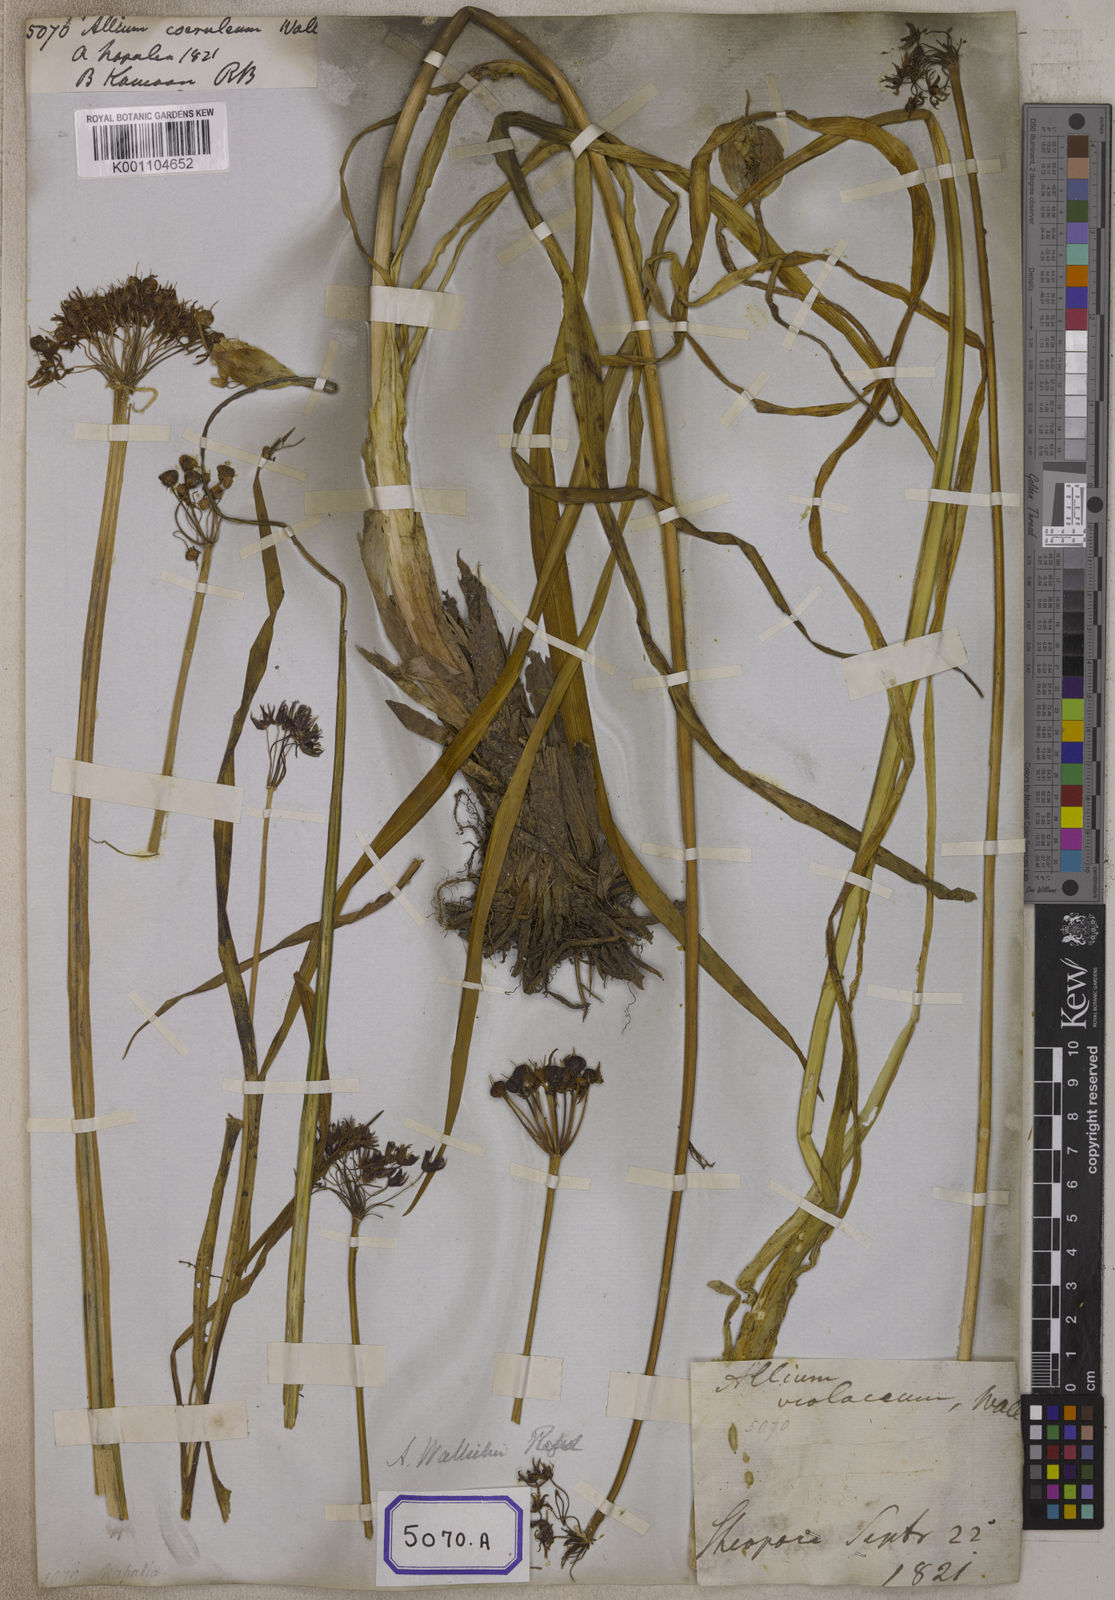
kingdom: Plantae
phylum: Tracheophyta
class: Liliopsida
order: Asparagales
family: Amaryllidaceae
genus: Allium
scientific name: Allium wallichii
